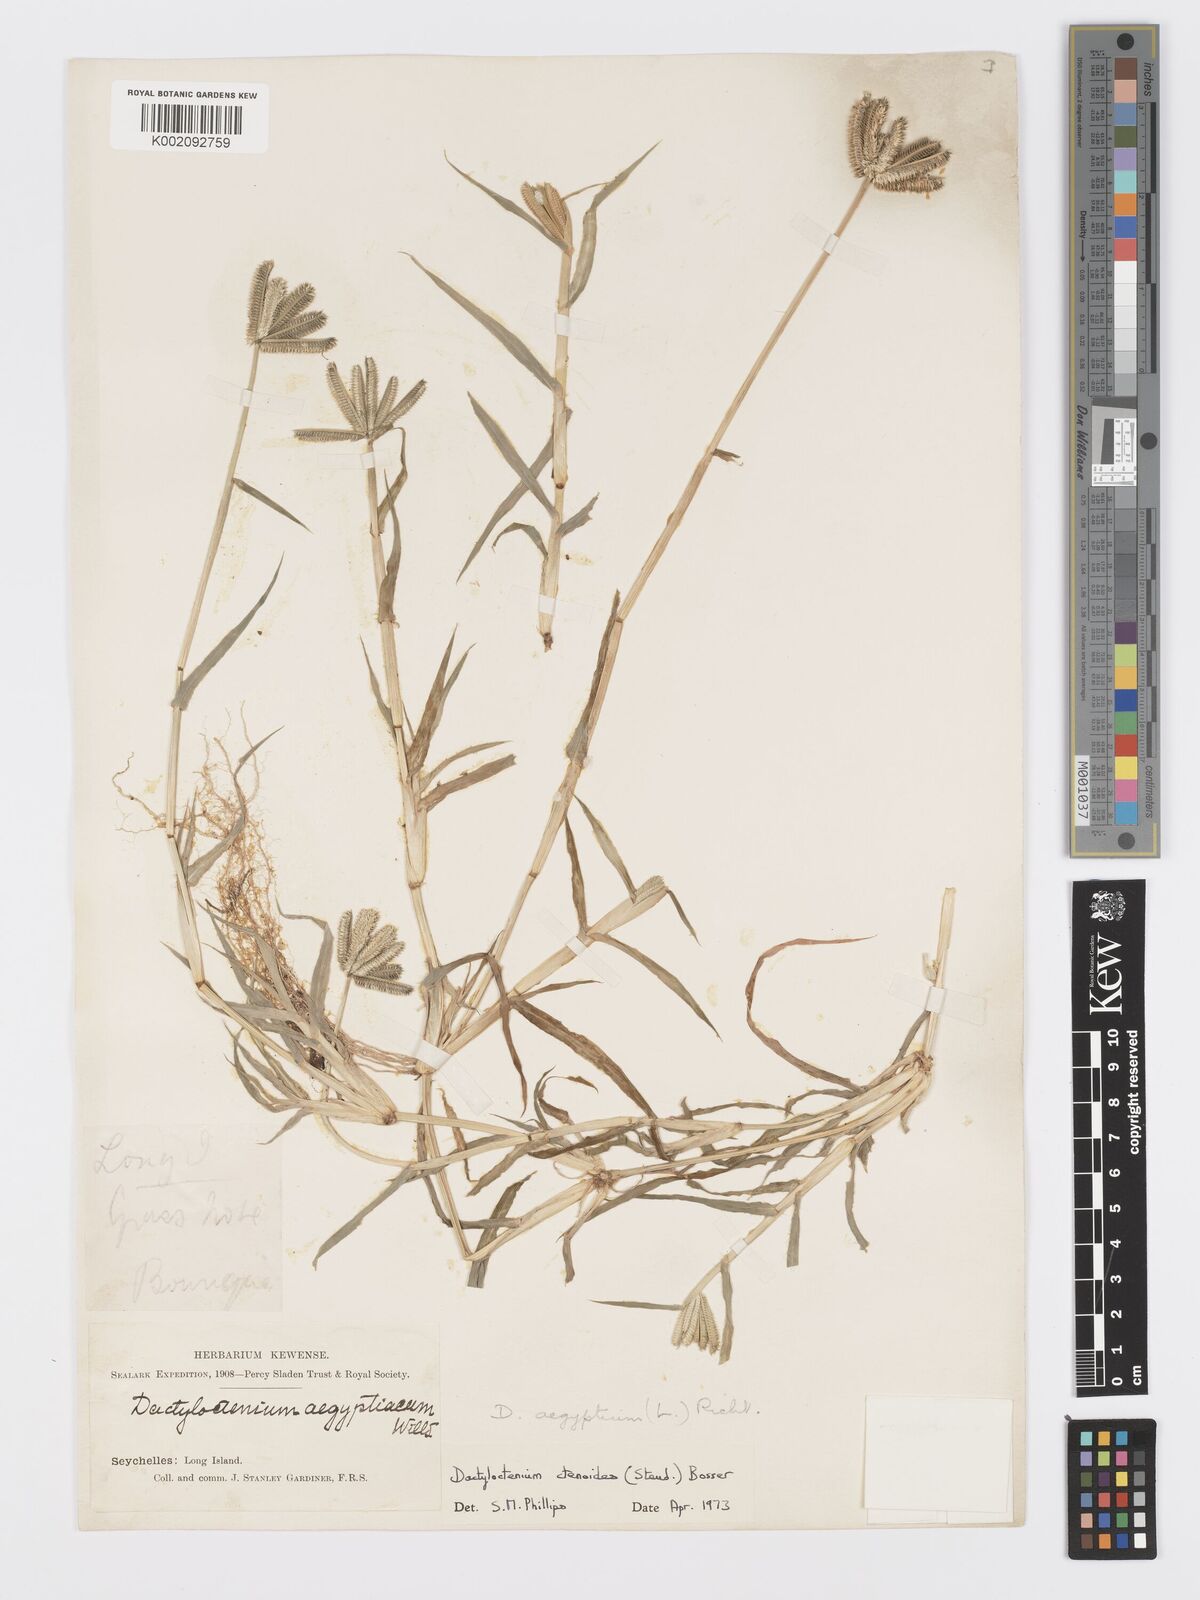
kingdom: Plantae
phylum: Tracheophyta
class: Liliopsida
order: Poales
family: Poaceae
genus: Dactyloctenium
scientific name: Dactyloctenium ctenoides
